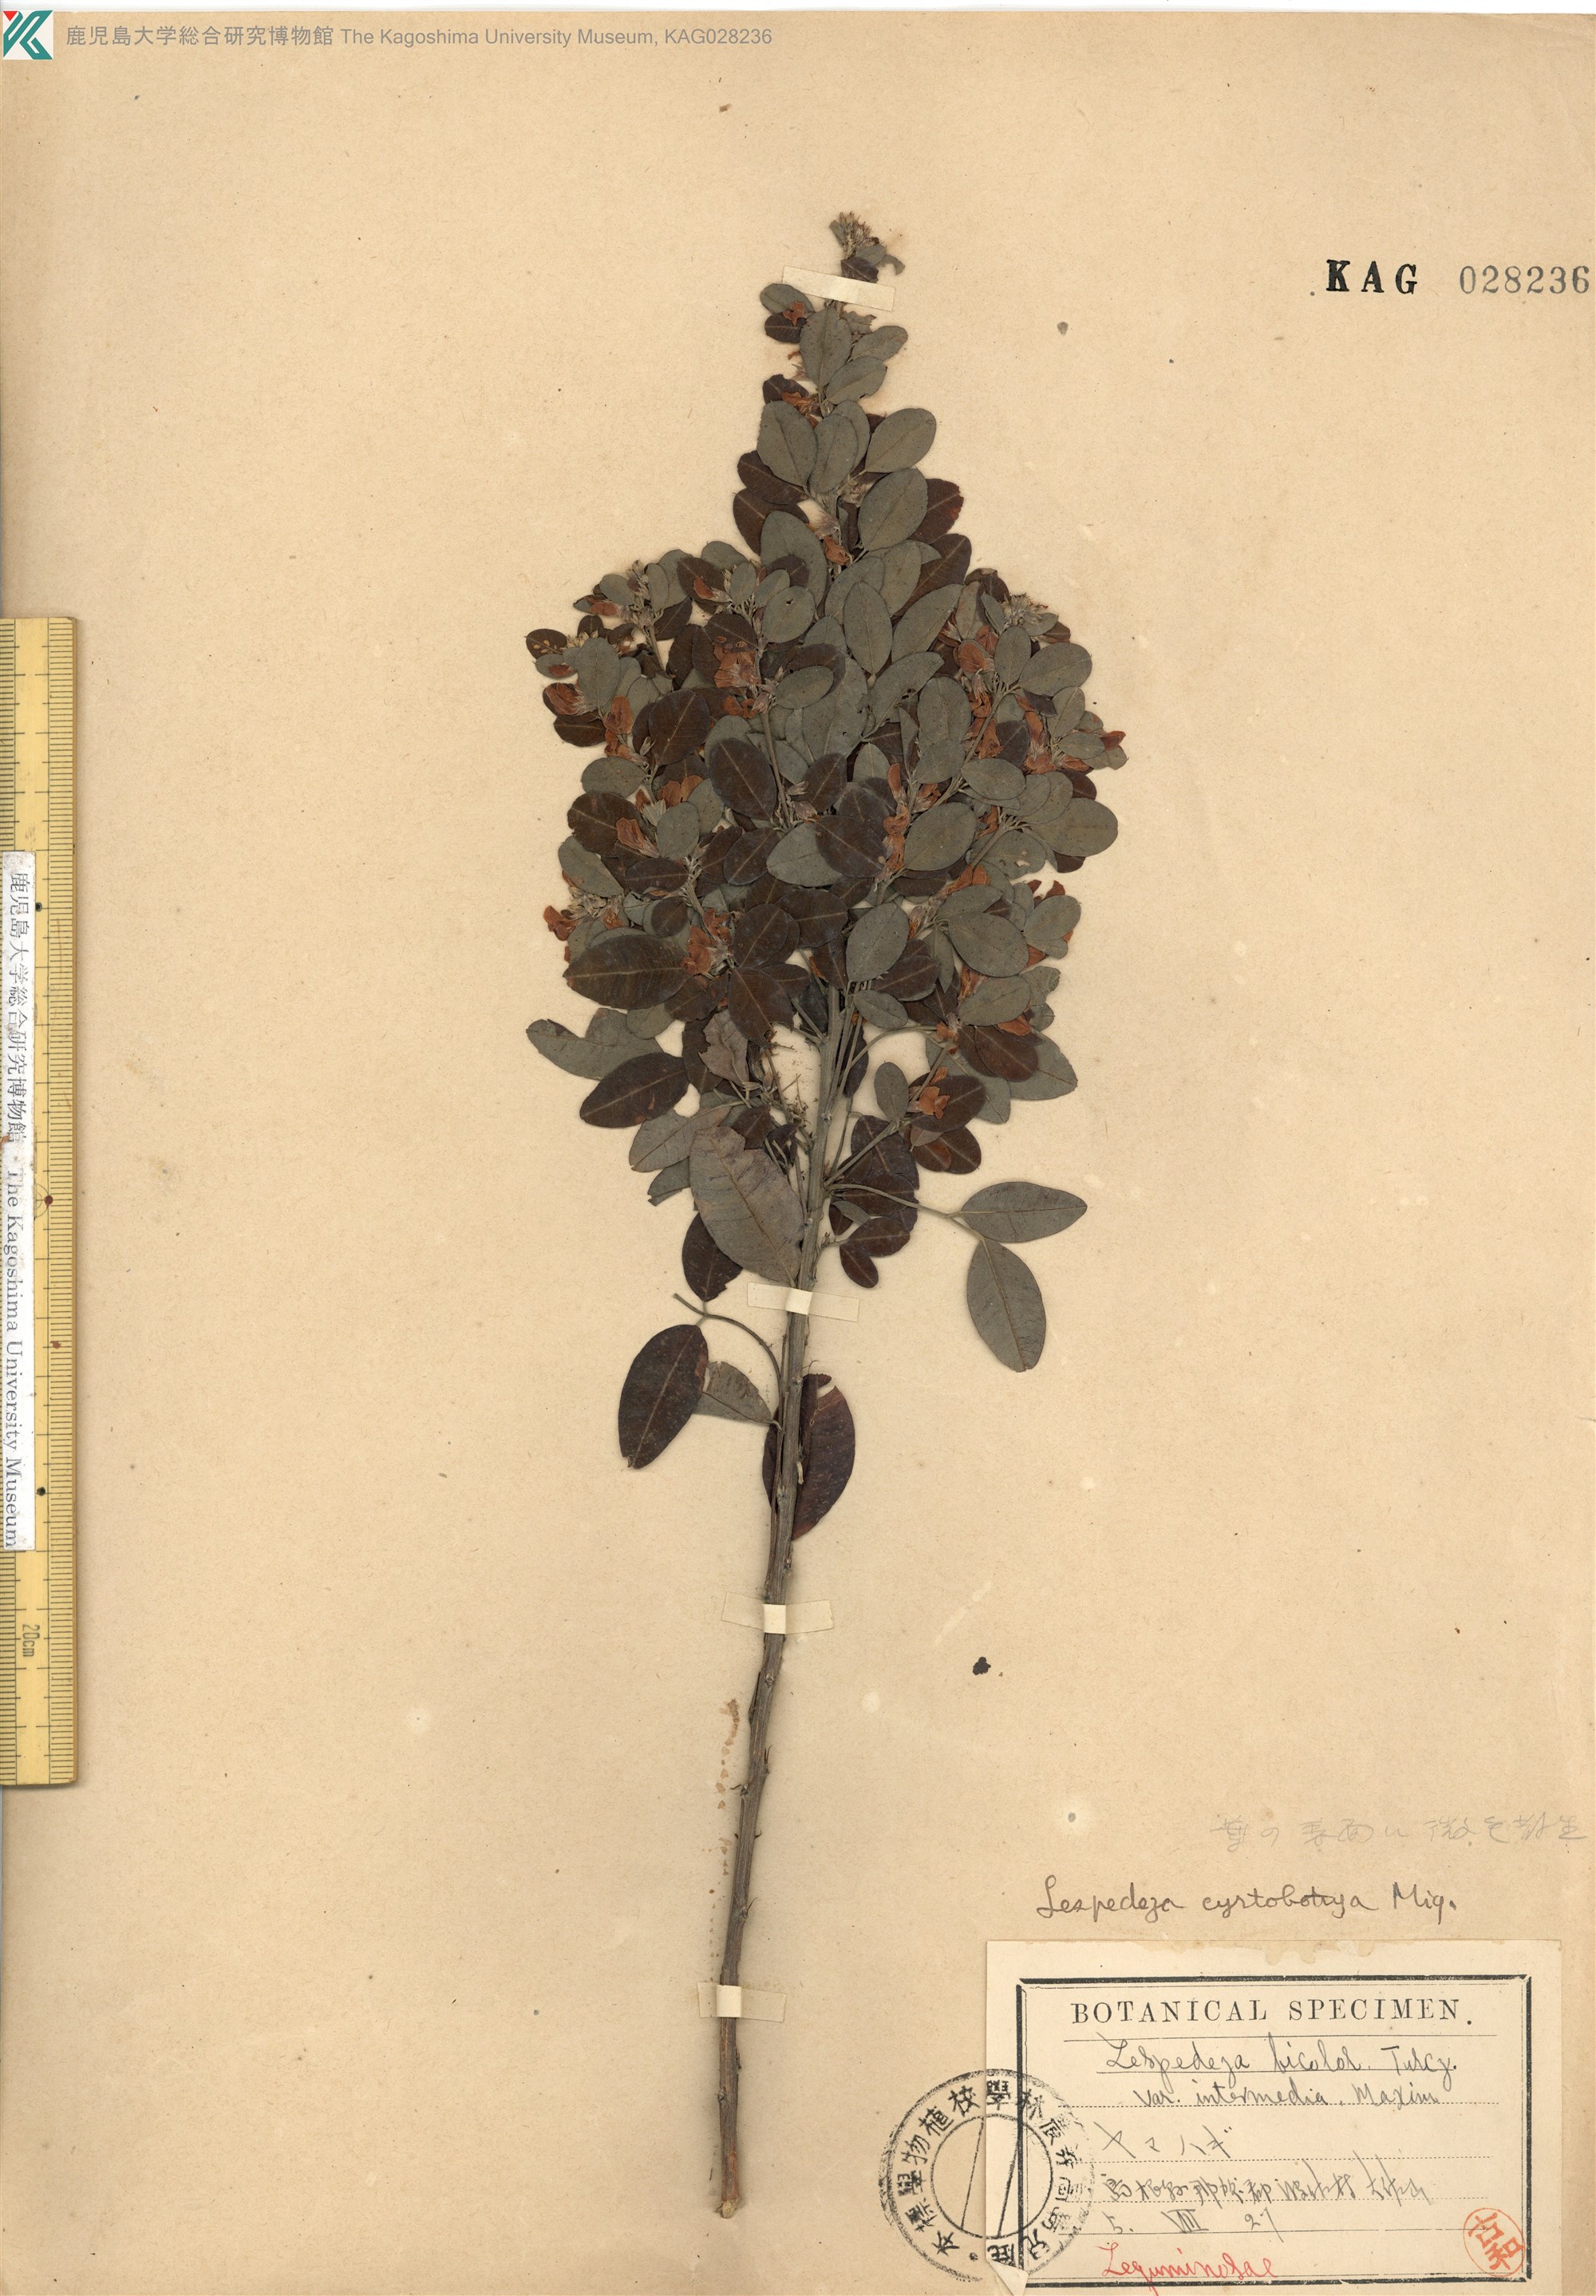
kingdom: Plantae
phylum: Tracheophyta
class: Magnoliopsida
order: Fabales
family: Fabaceae
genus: Lespedeza
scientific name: Lespedeza cyrtobotrya
